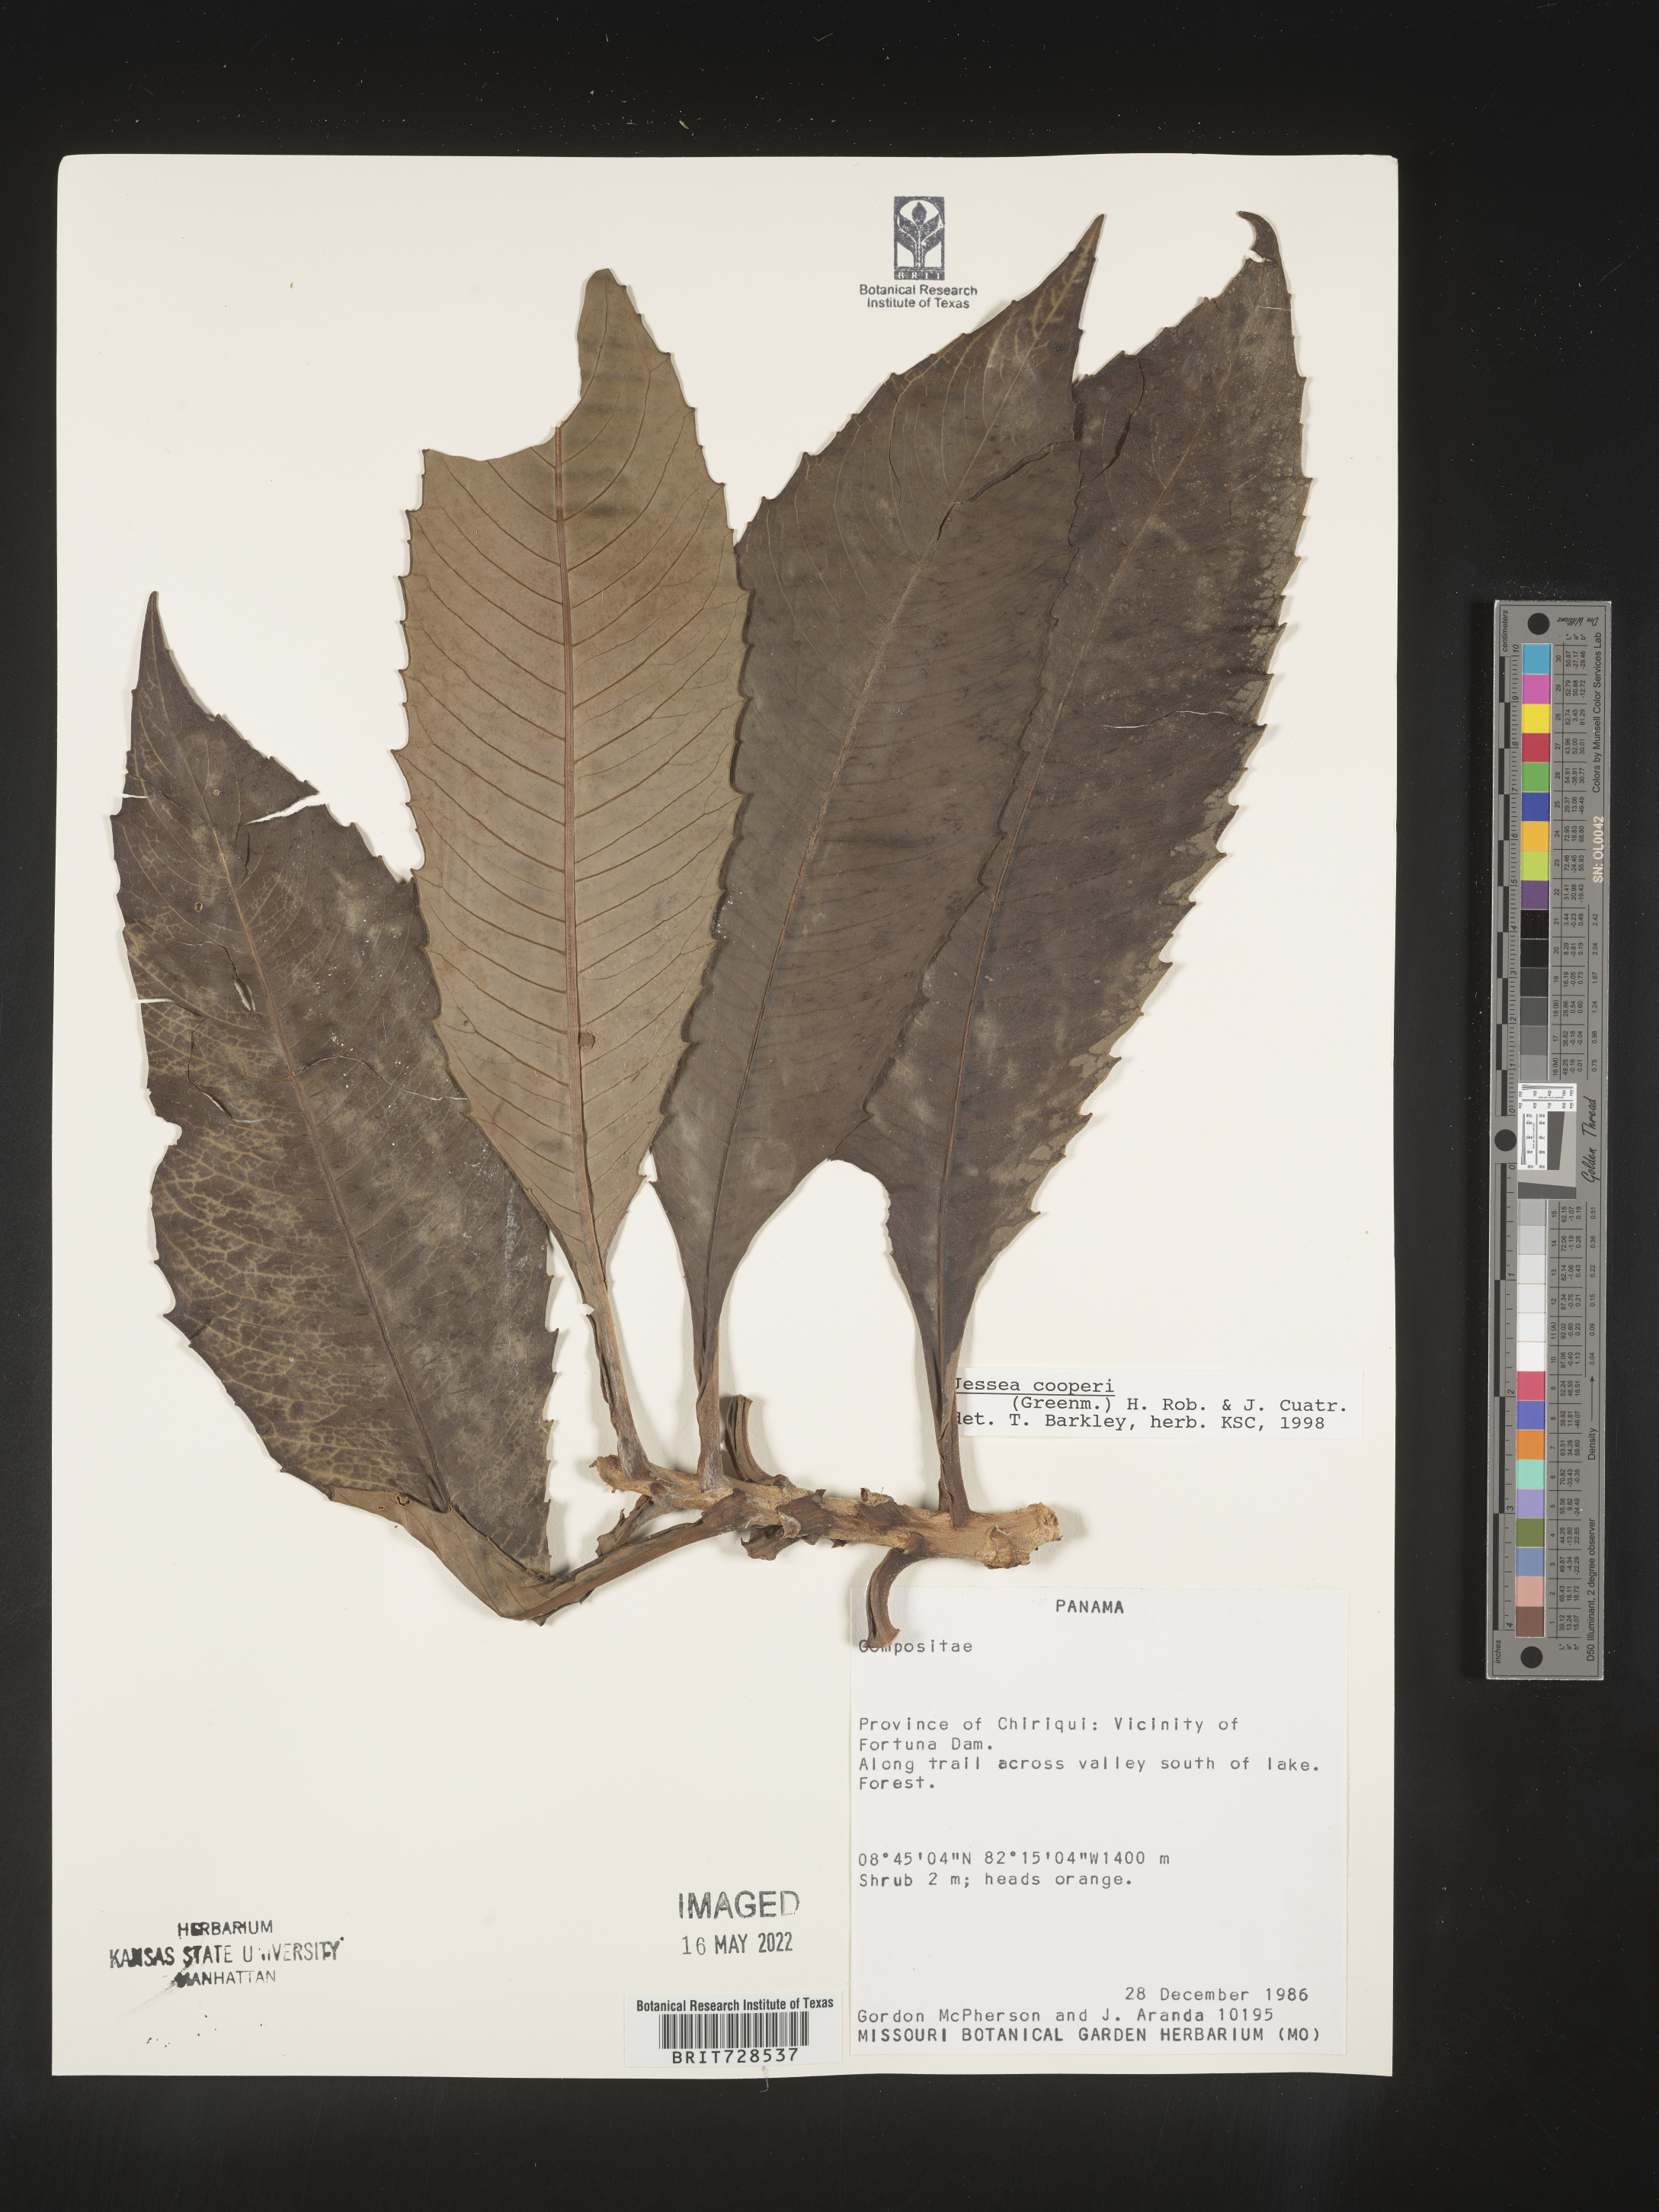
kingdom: Plantae
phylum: Tracheophyta
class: Magnoliopsida
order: Asterales
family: Asteraceae
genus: Jessea
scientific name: Jessea
